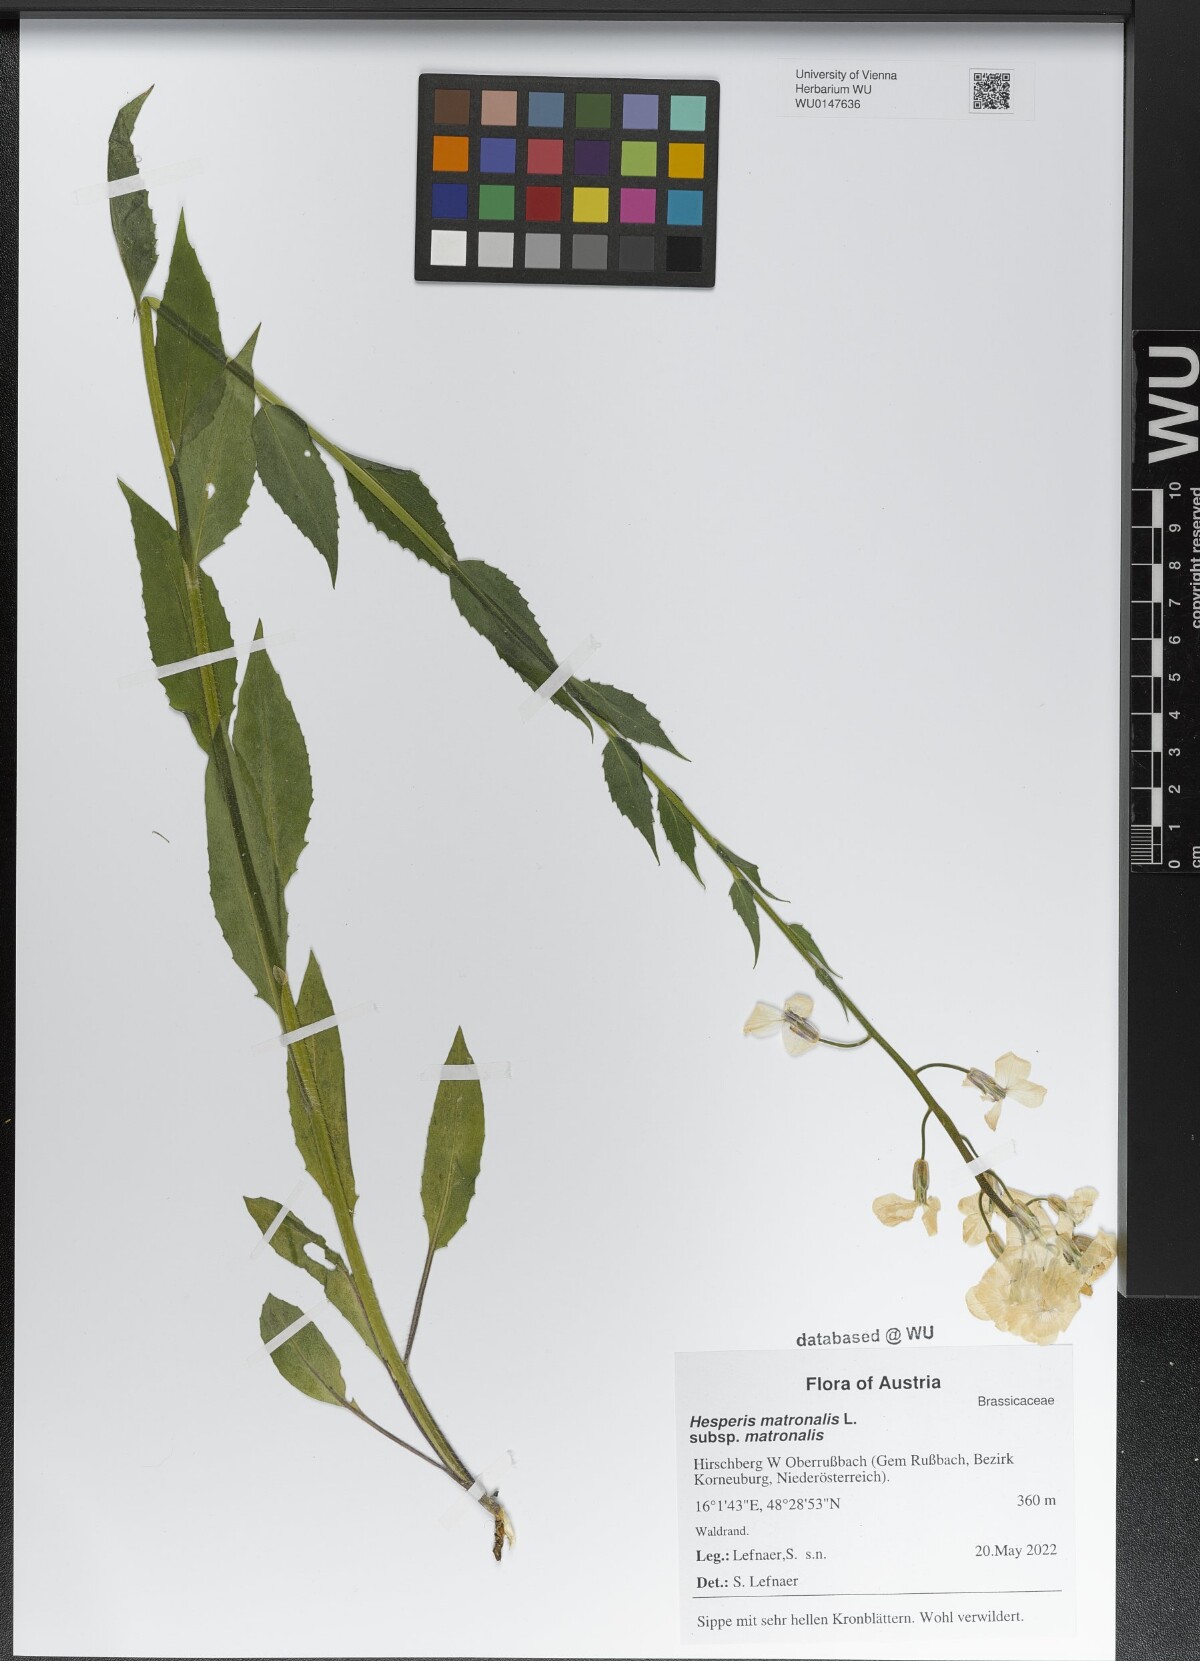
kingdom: Plantae
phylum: Tracheophyta
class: Magnoliopsida
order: Brassicales
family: Brassicaceae
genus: Hesperis
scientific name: Hesperis matronalis
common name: Dame's-violet
